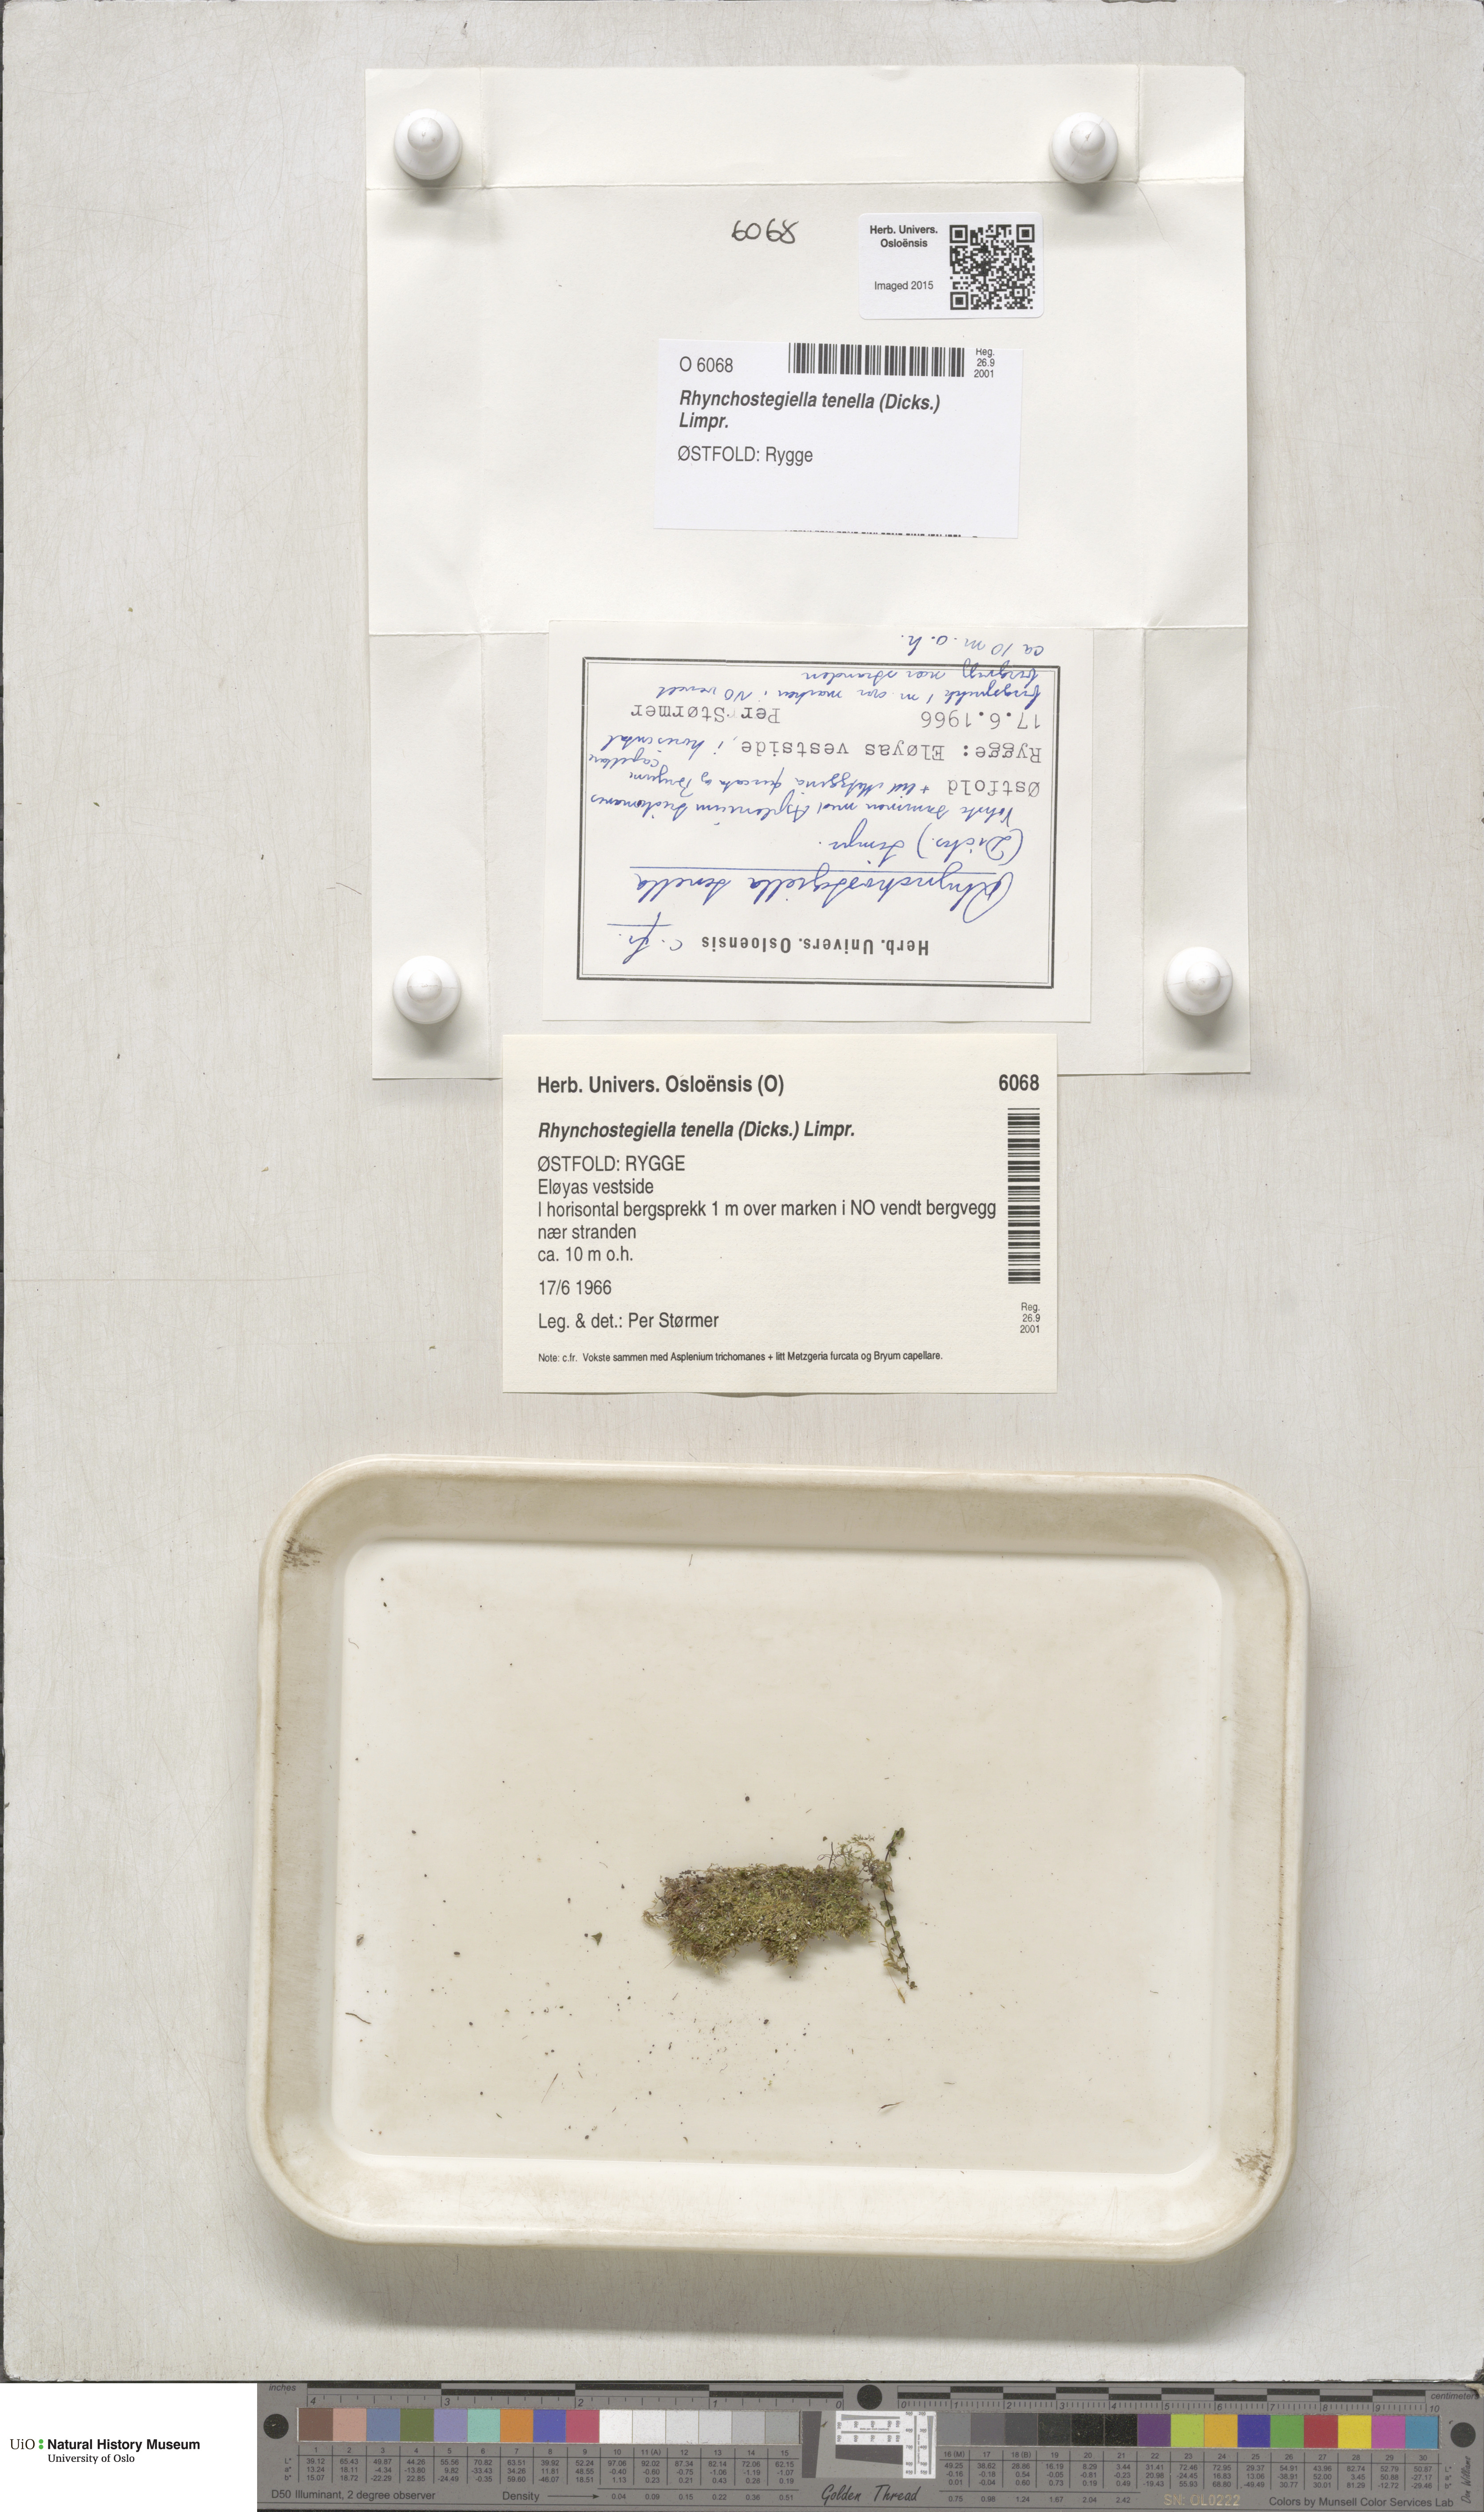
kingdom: Plantae
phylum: Bryophyta
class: Bryopsida
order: Hypnales
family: Brachytheciaceae
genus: Rhynchostegiella
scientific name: Rhynchostegiella tenella
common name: Tender feather-moss
